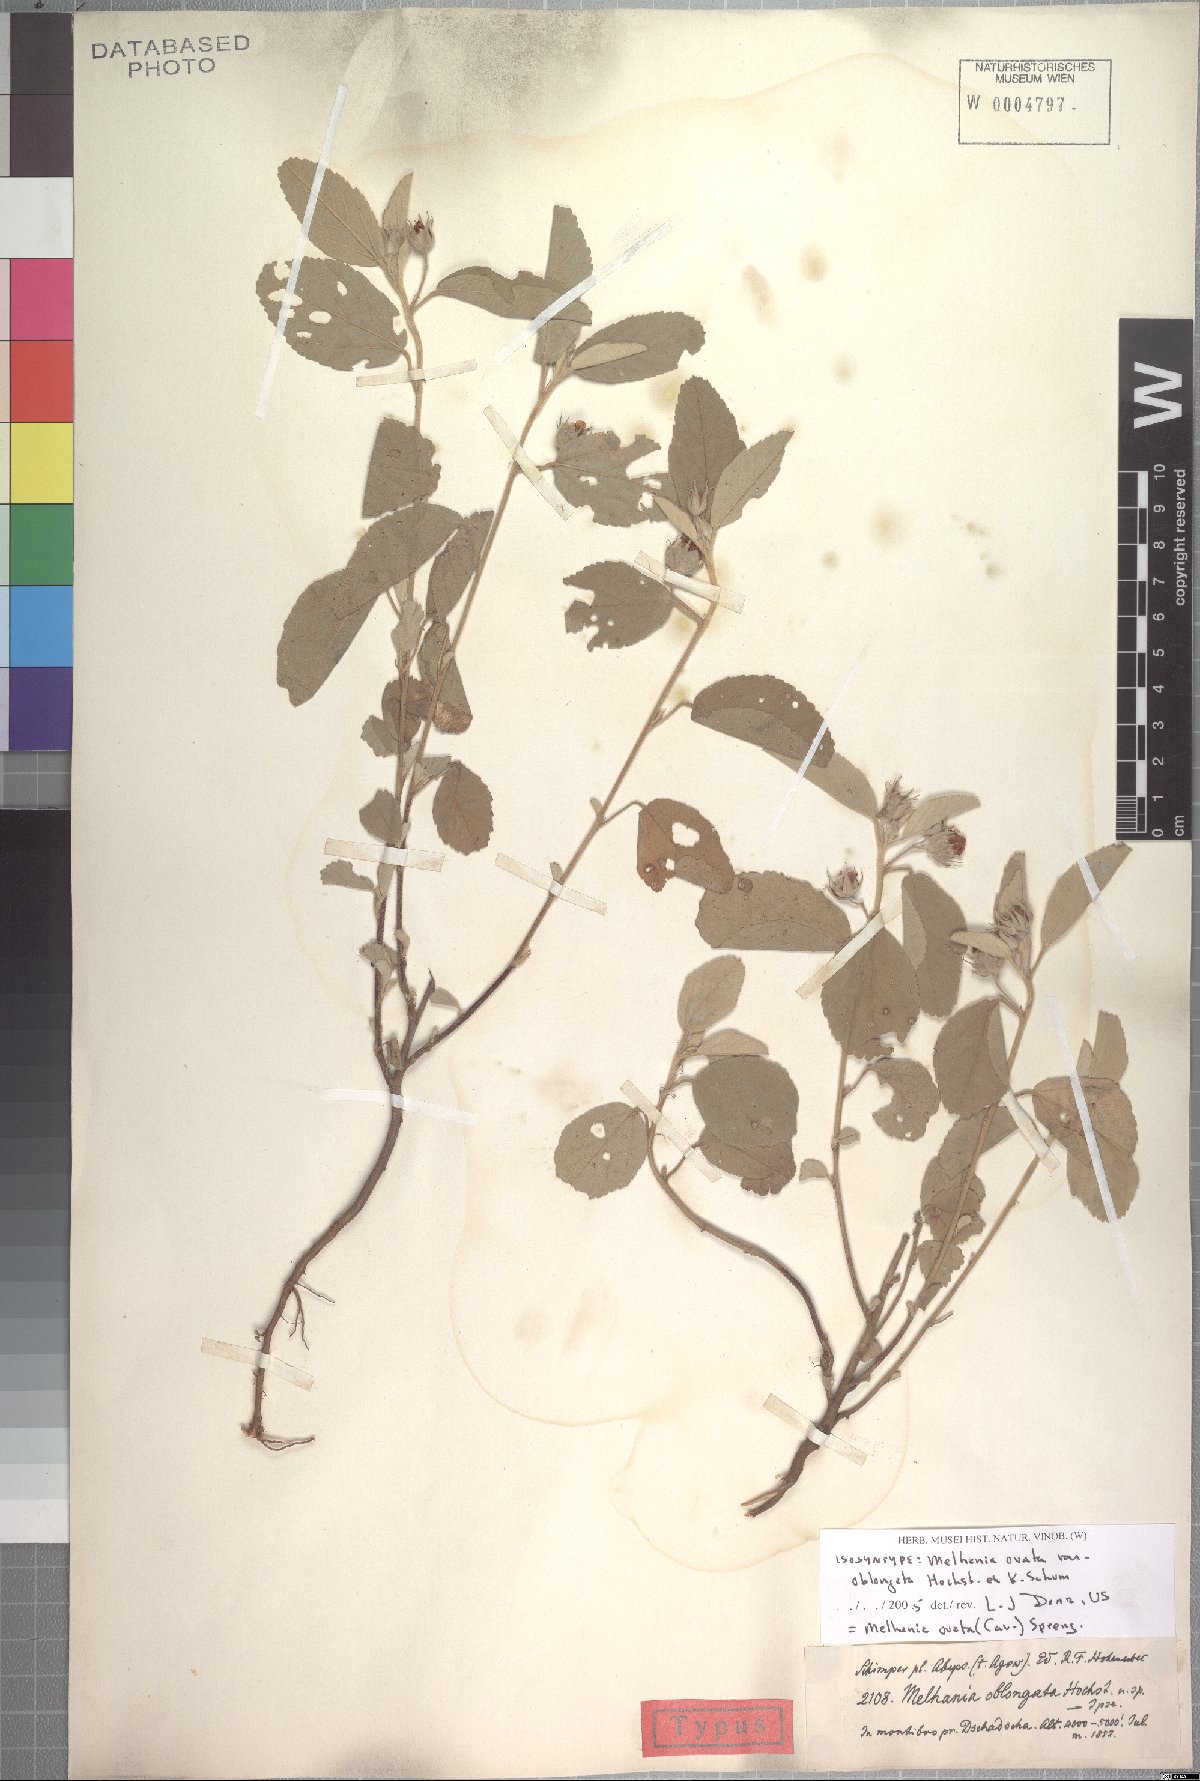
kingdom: Plantae
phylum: Tracheophyta
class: Magnoliopsida
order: Malvales
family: Malvaceae
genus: Melhania
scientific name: Melhania ovata
